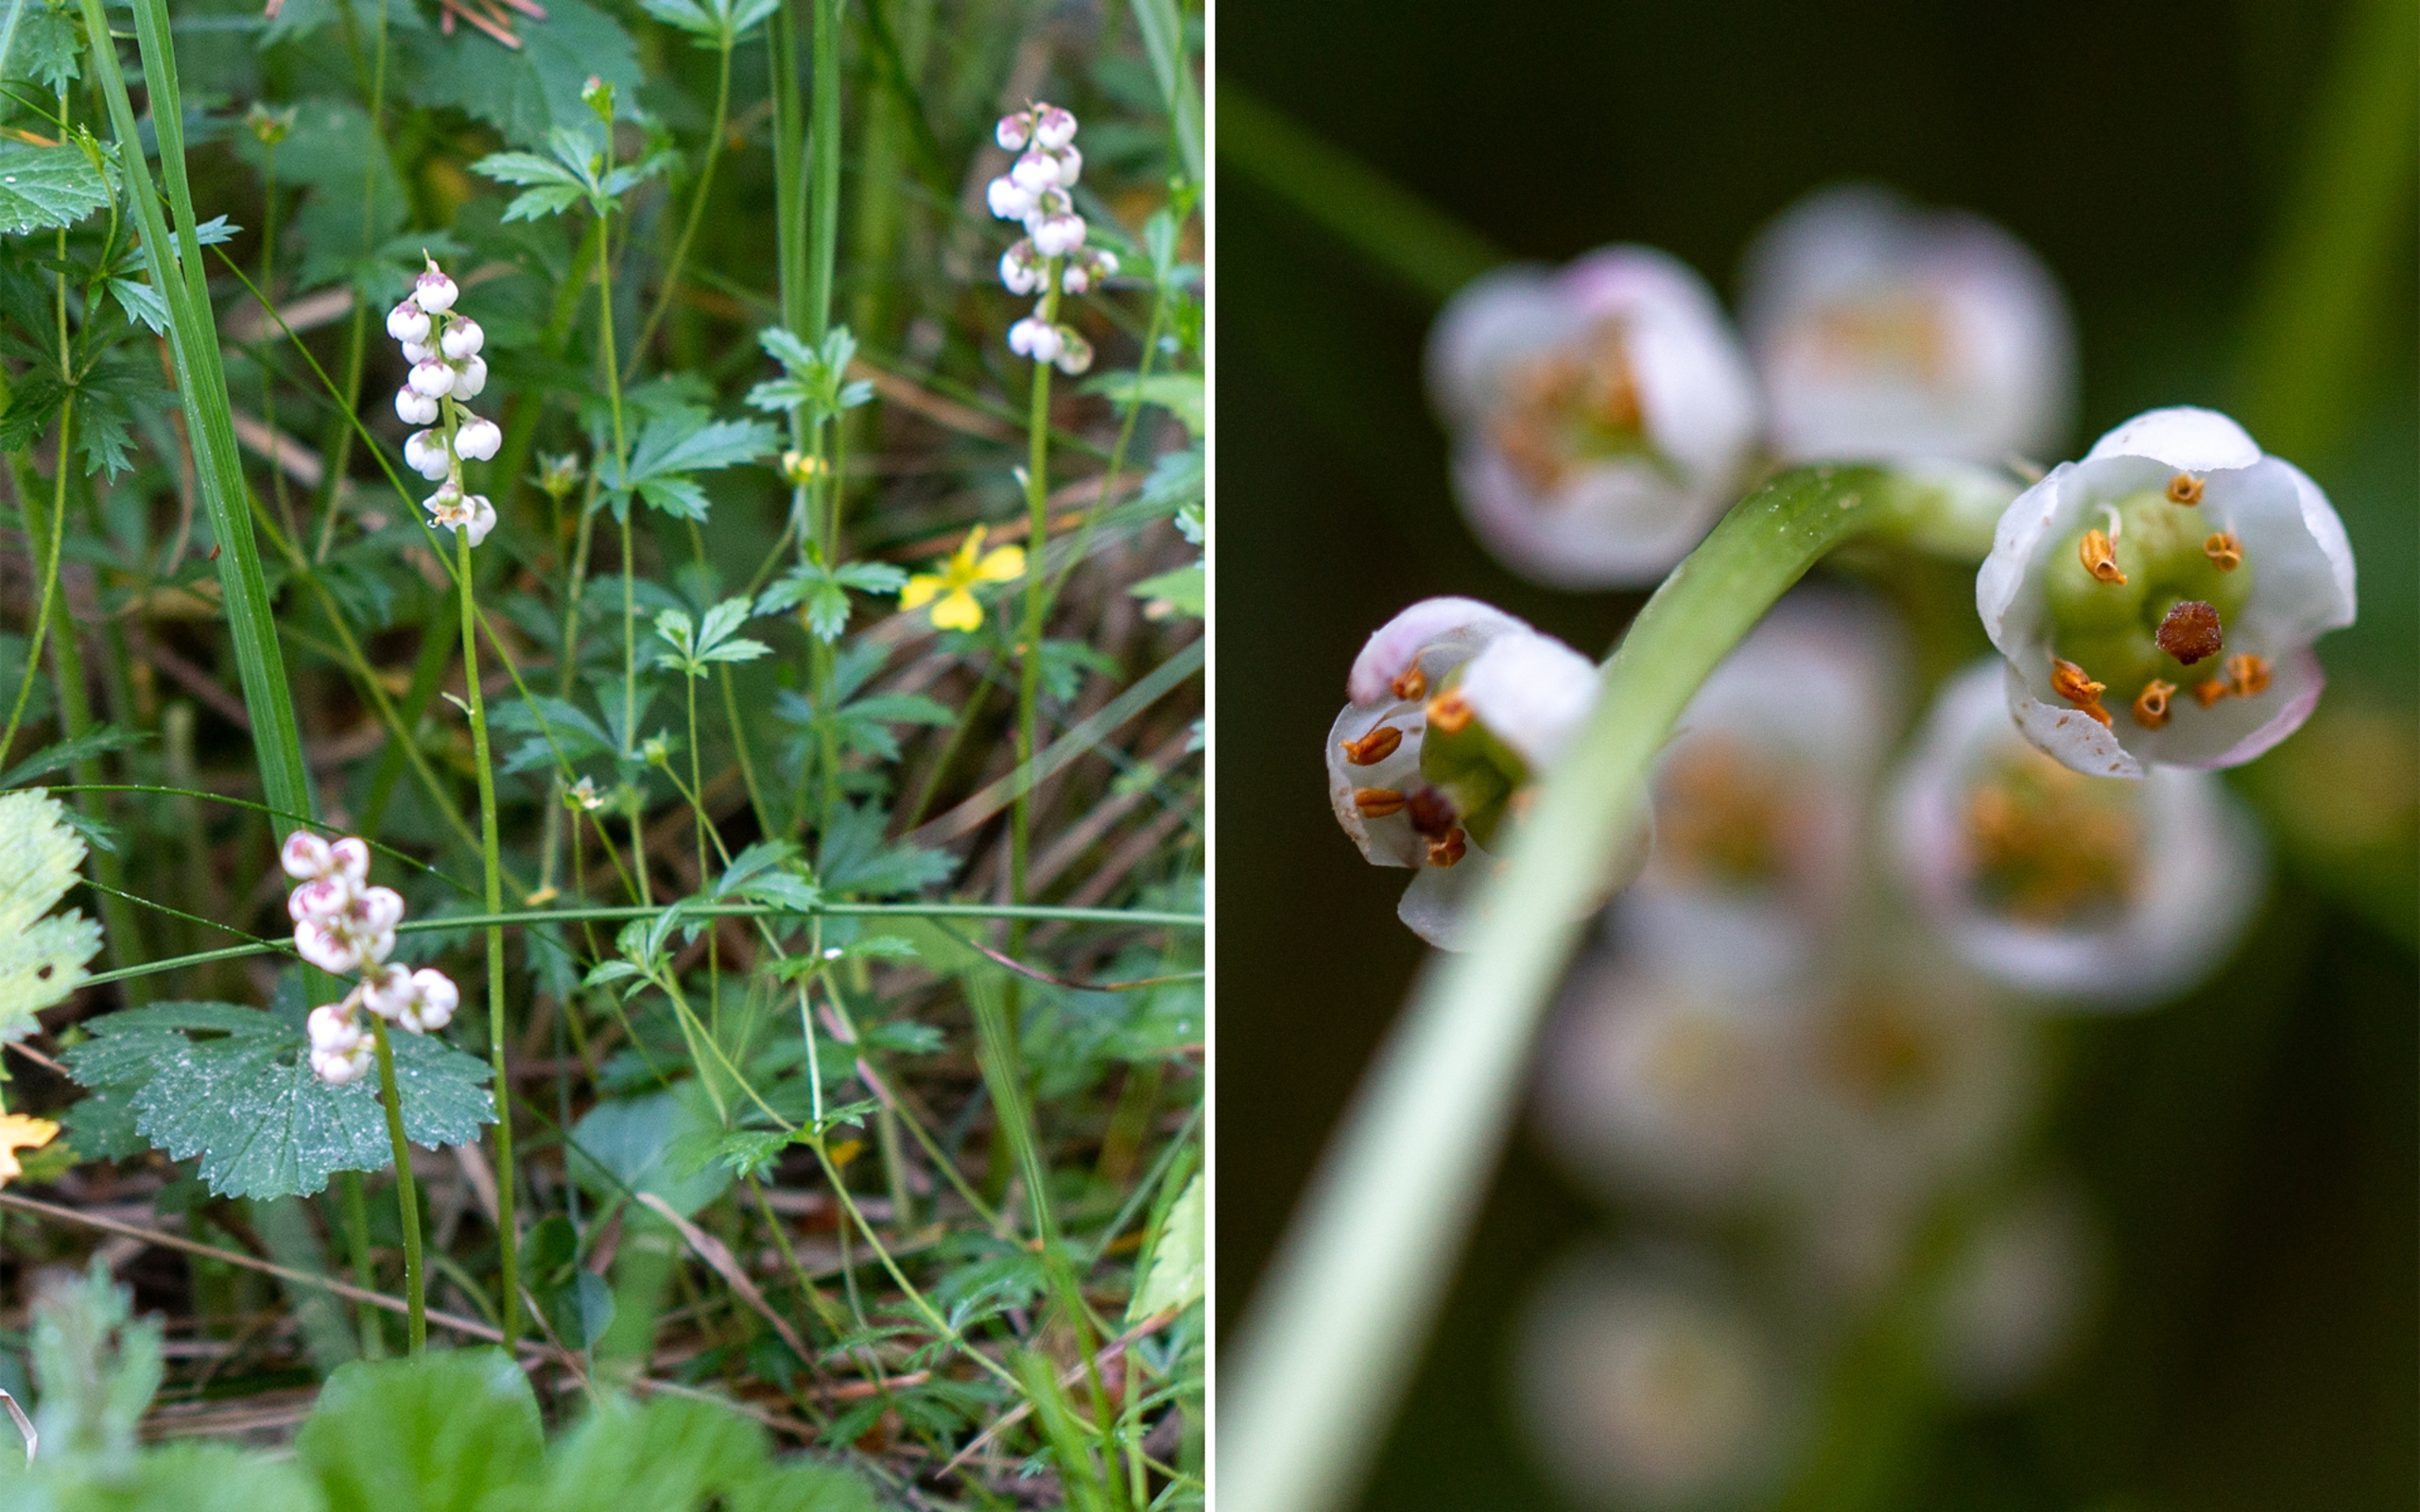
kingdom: Plantae
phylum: Tracheophyta
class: Magnoliopsida
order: Ericales
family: Ericaceae
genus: Pyrola
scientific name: Pyrola minor
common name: Liden vintergrøn
